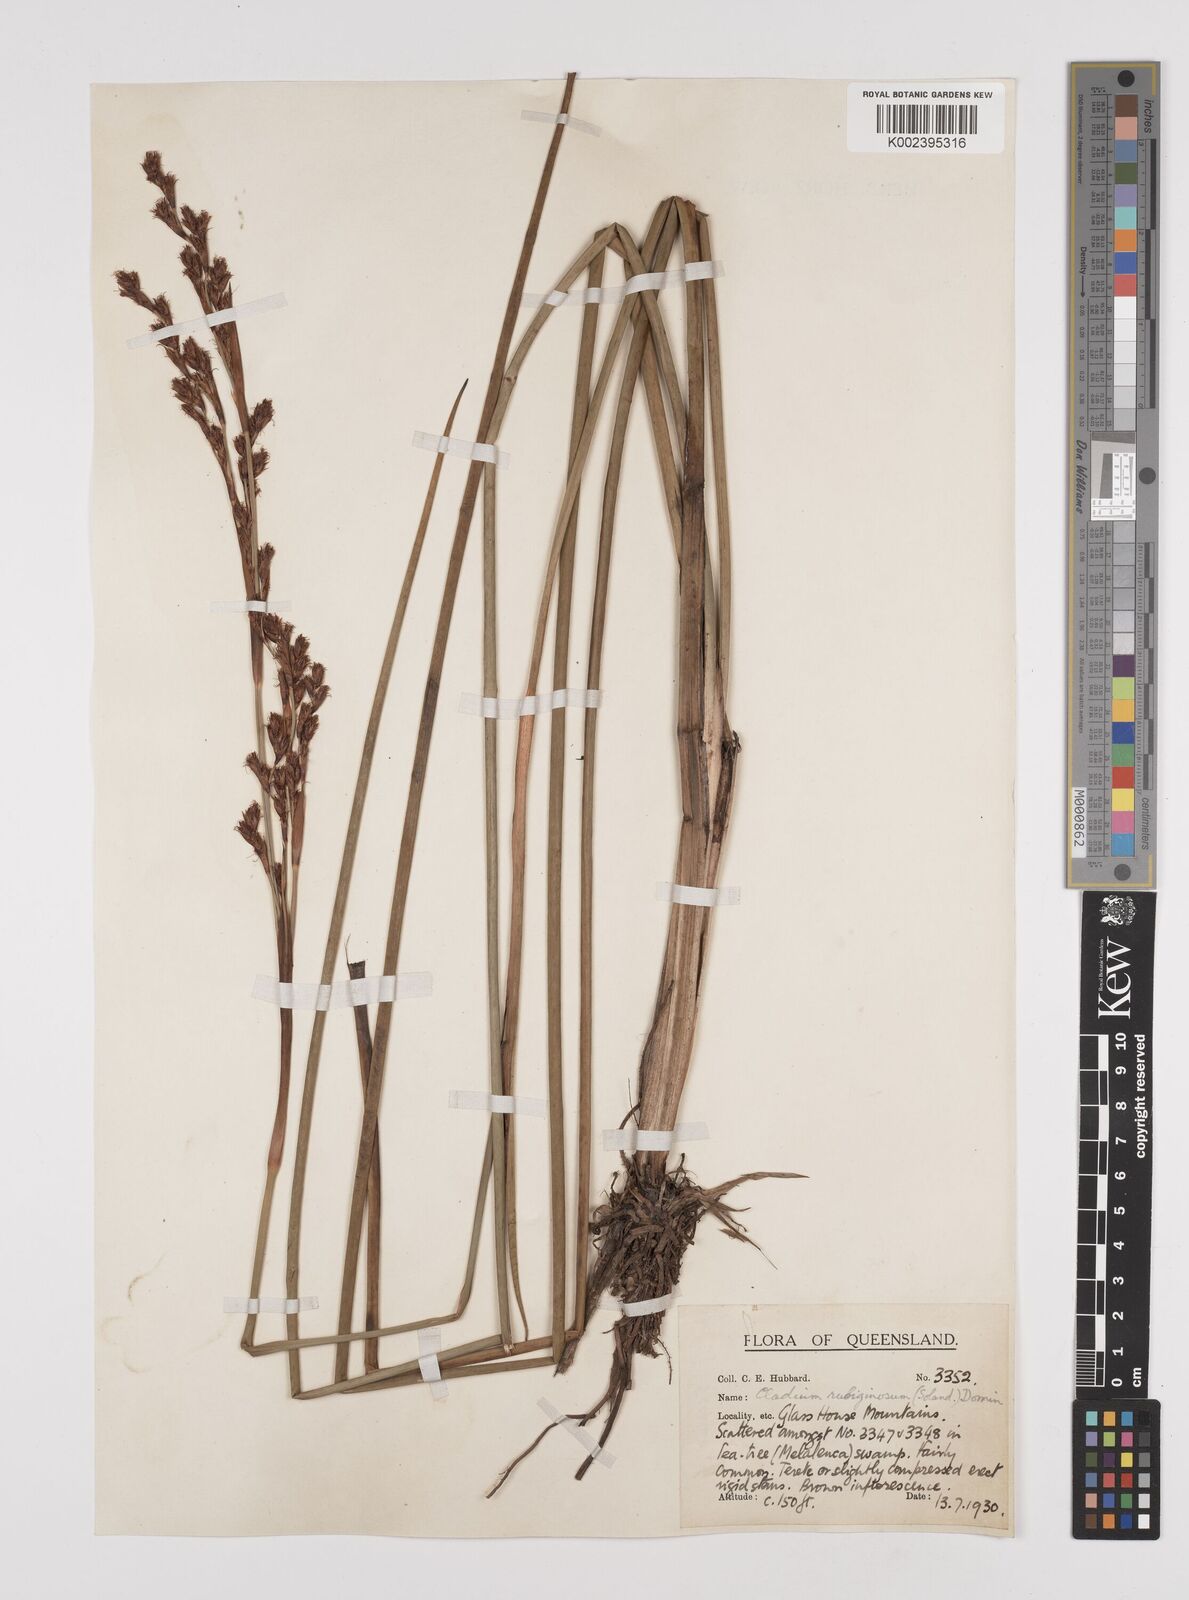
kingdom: Plantae
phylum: Tracheophyta
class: Liliopsida
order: Poales
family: Cyperaceae
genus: Machaerina
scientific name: Machaerina rubiginosa
